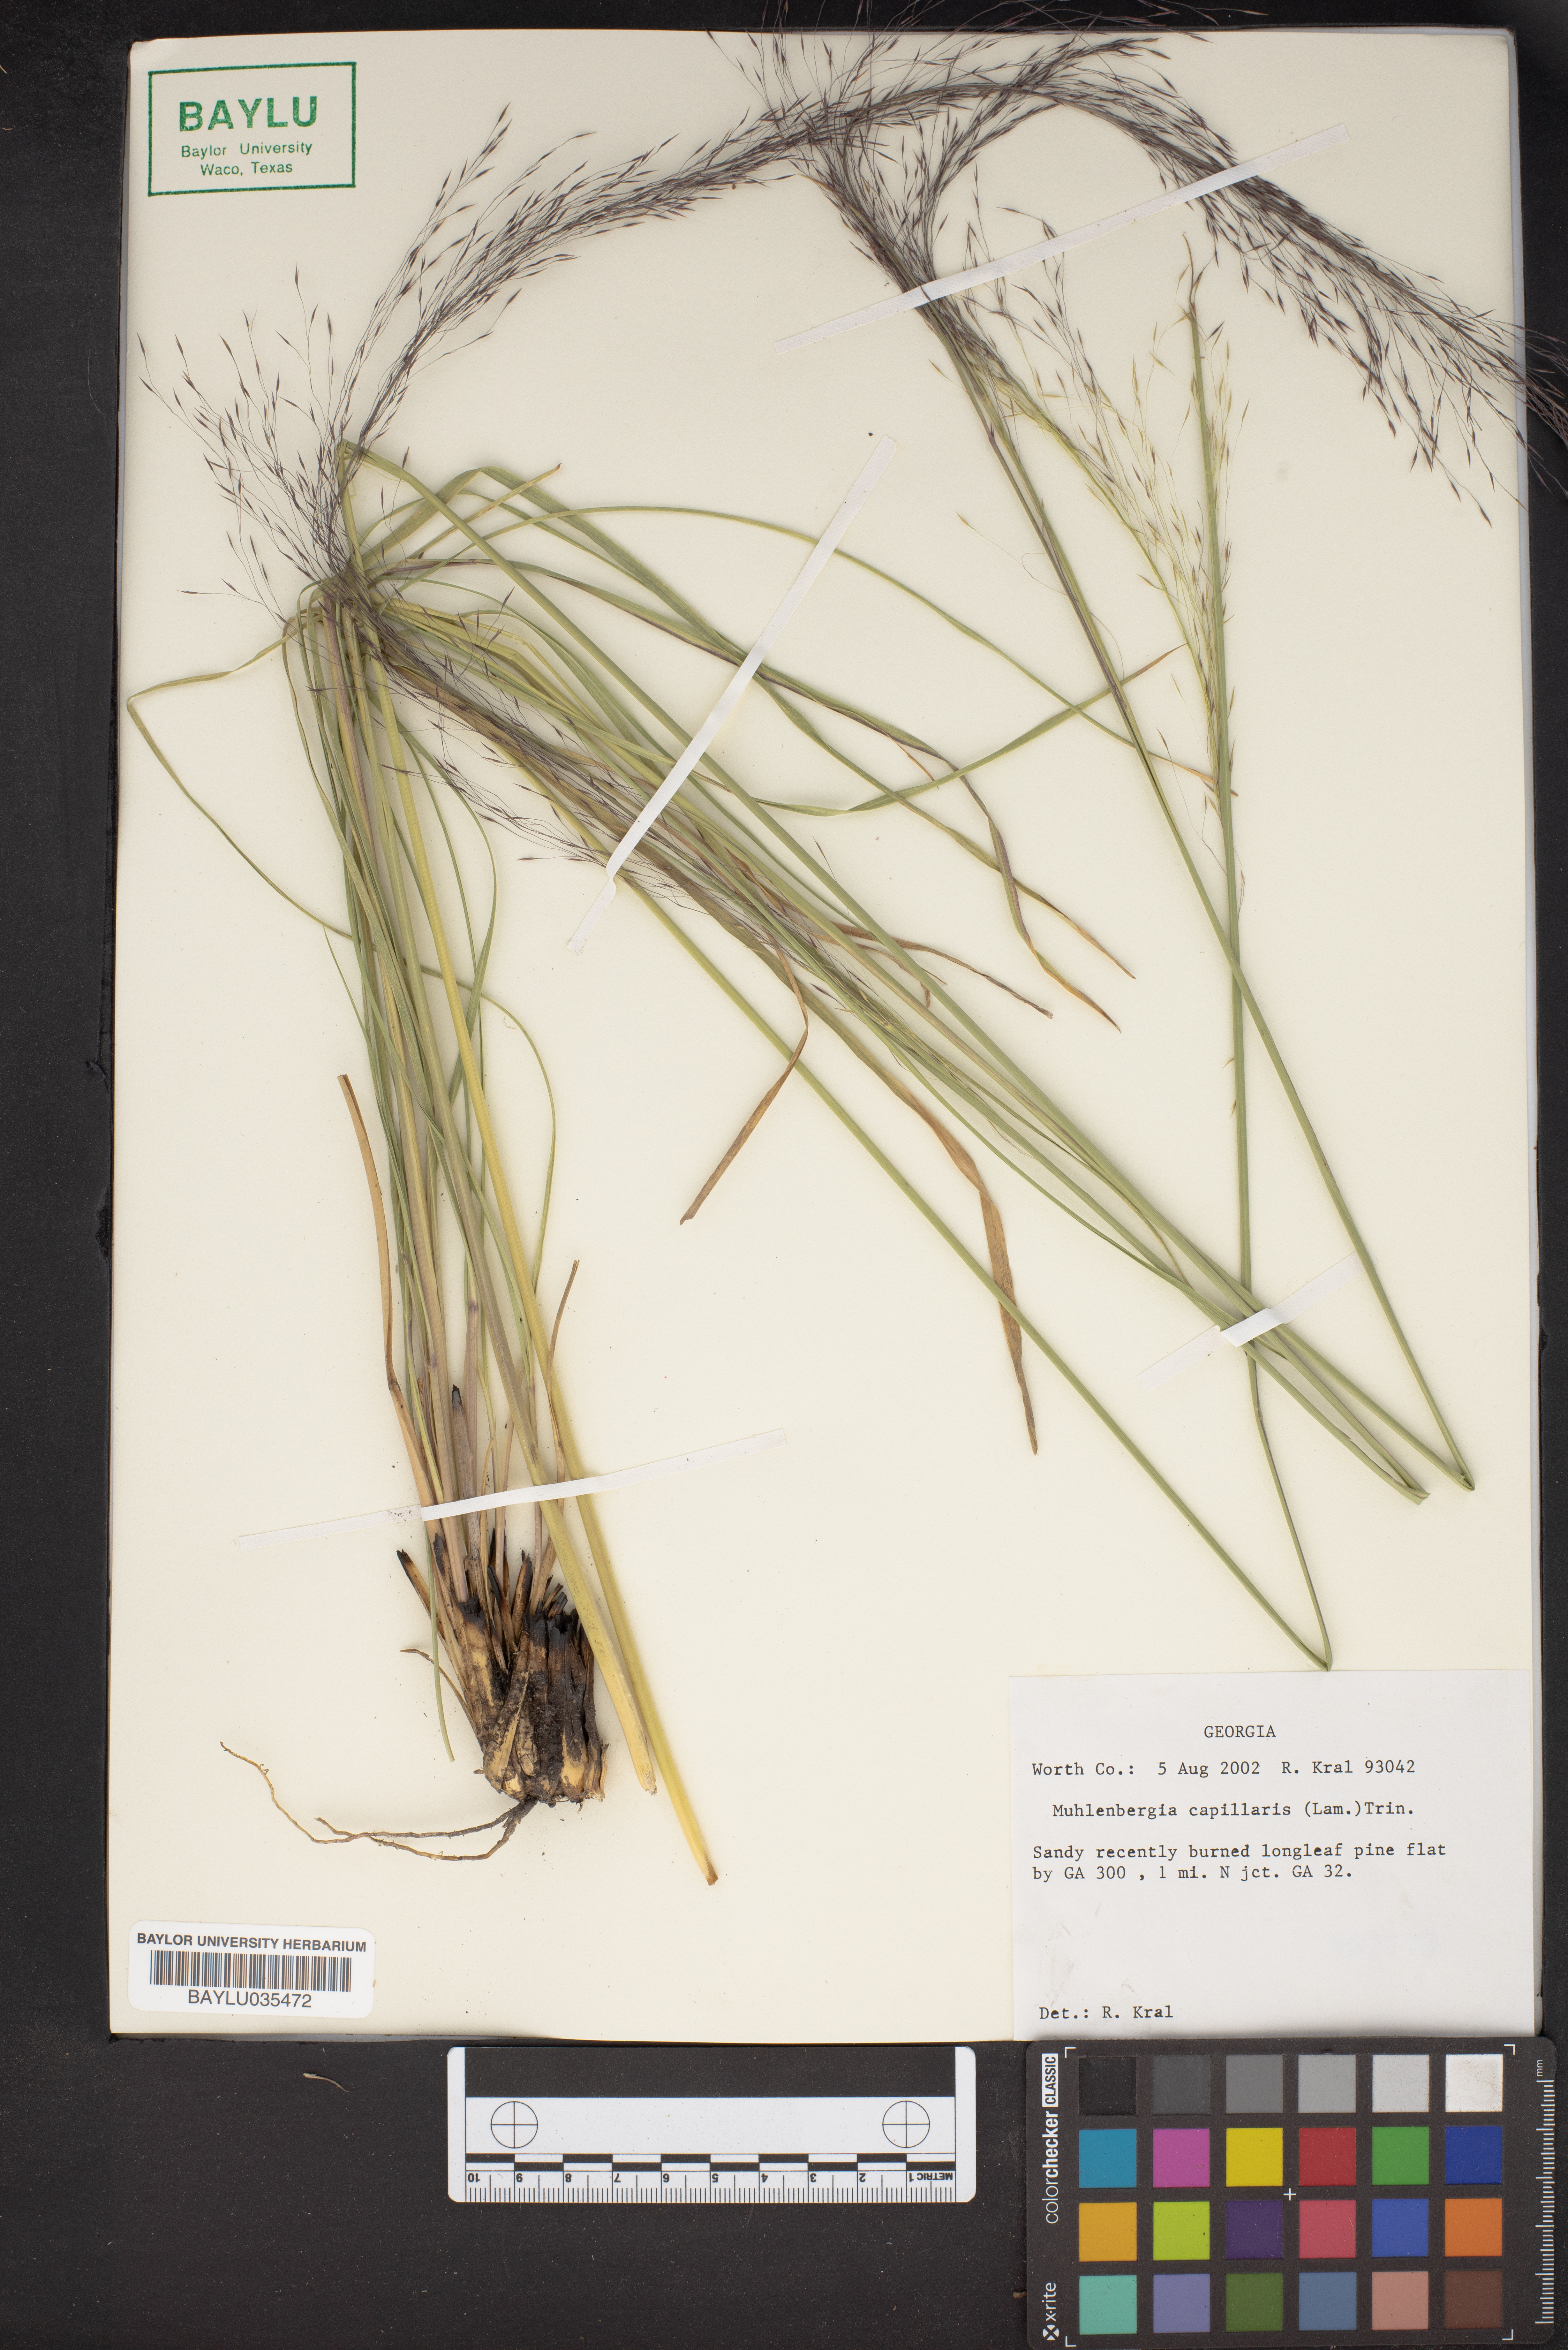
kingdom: Plantae
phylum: Tracheophyta
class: Liliopsida
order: Poales
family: Poaceae
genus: Muhlenbergia
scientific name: Muhlenbergia capillaris
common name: Purple grass
